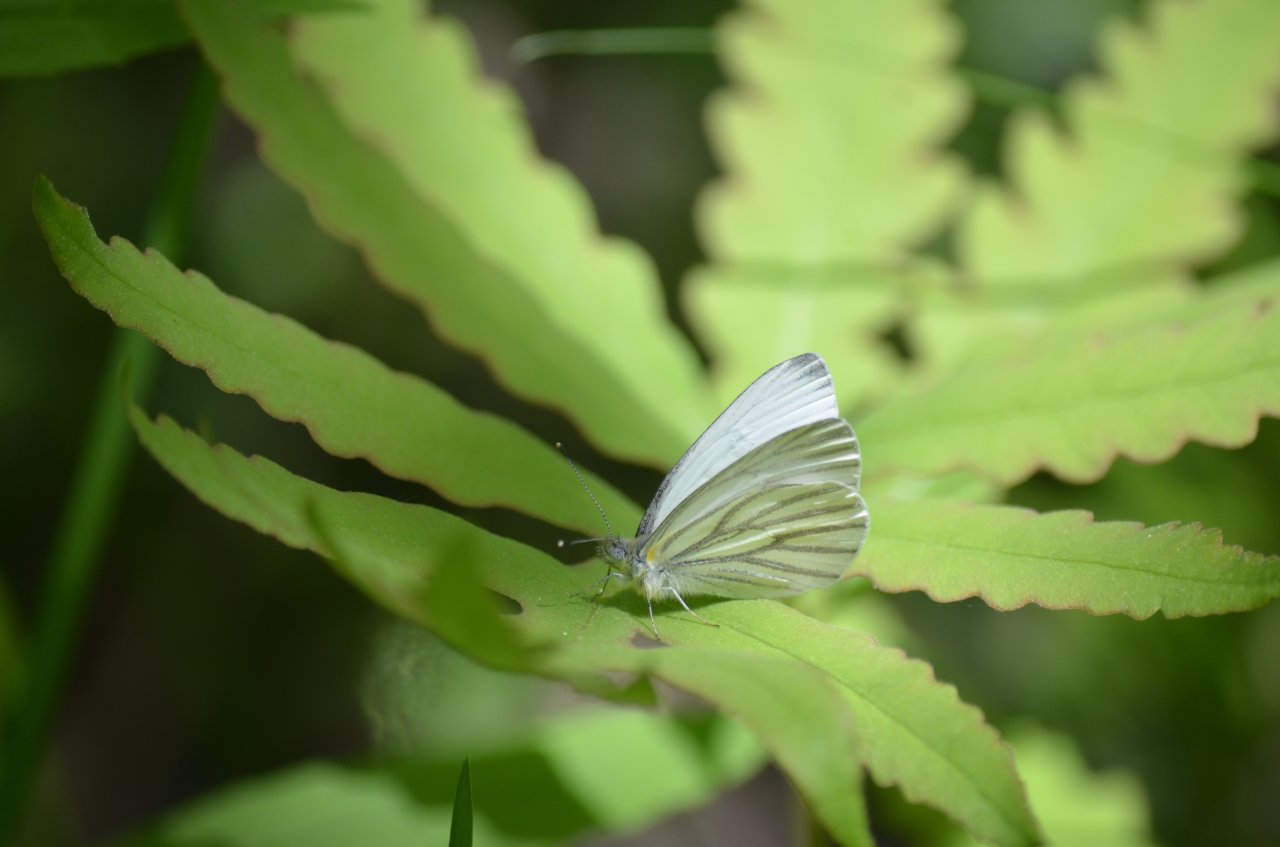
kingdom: Animalia
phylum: Arthropoda
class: Insecta
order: Lepidoptera
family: Pieridae
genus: Pieris
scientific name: Pieris oleracea
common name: Mustard White
